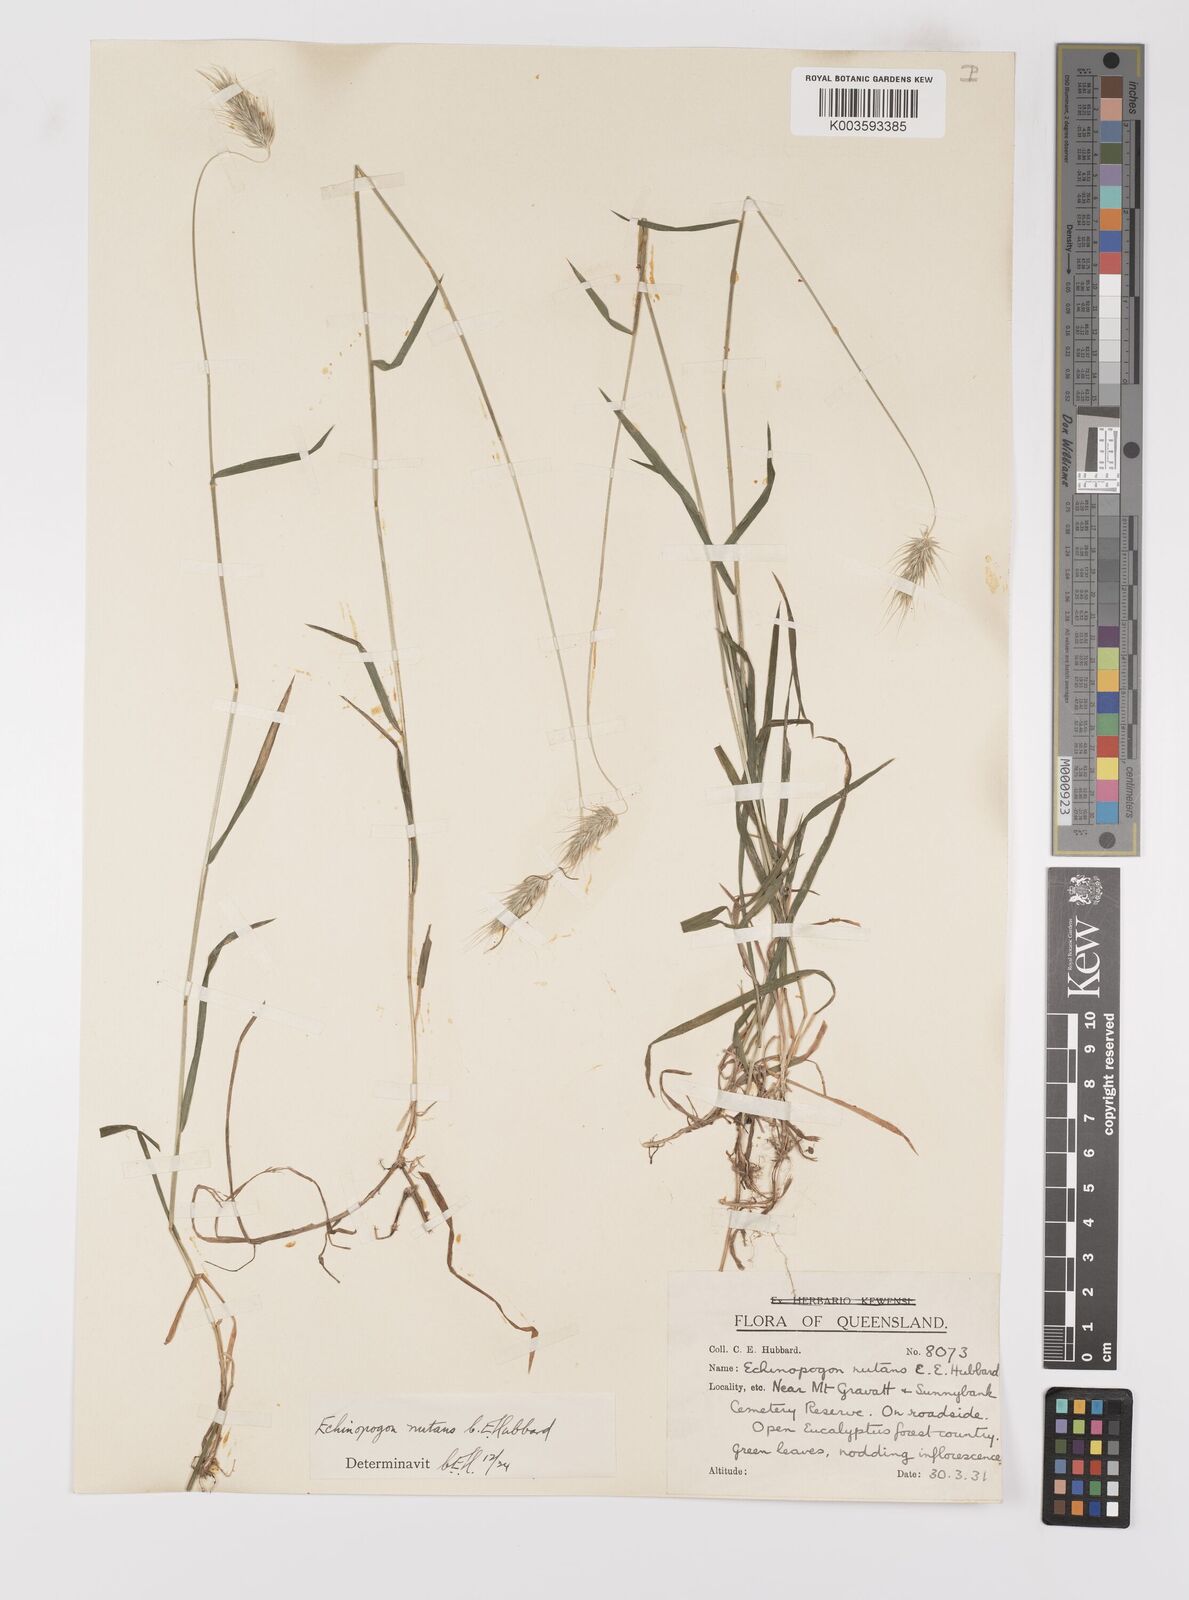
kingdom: Plantae
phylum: Tracheophyta
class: Liliopsida
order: Poales
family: Poaceae
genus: Echinopogon
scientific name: Echinopogon nutans
